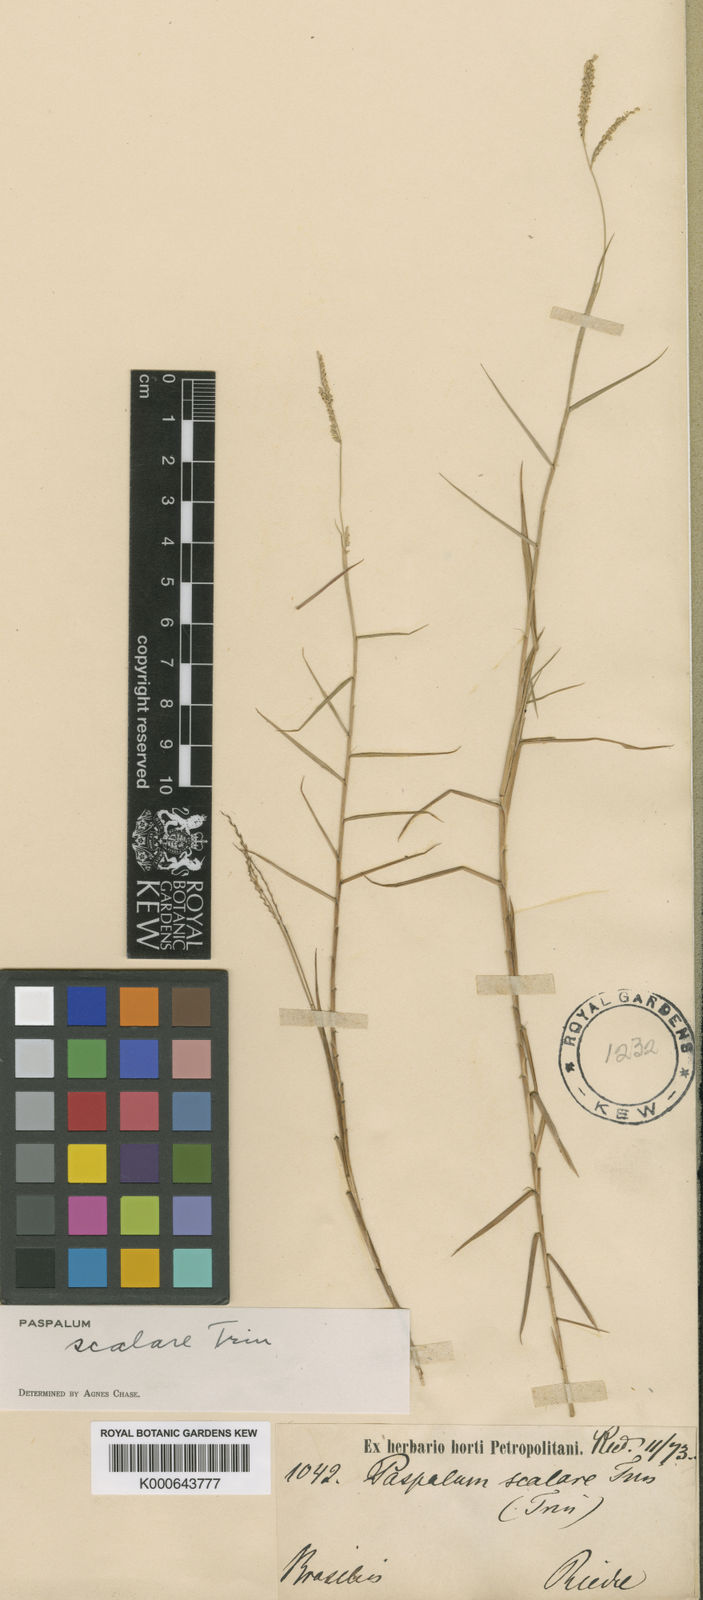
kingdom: Plantae
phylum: Tracheophyta
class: Liliopsida
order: Poales
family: Poaceae
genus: Paspalum
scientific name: Paspalum scalare
